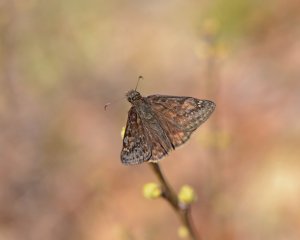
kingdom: Animalia
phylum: Arthropoda
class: Insecta
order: Lepidoptera
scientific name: Lepidoptera
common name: Butterflies
